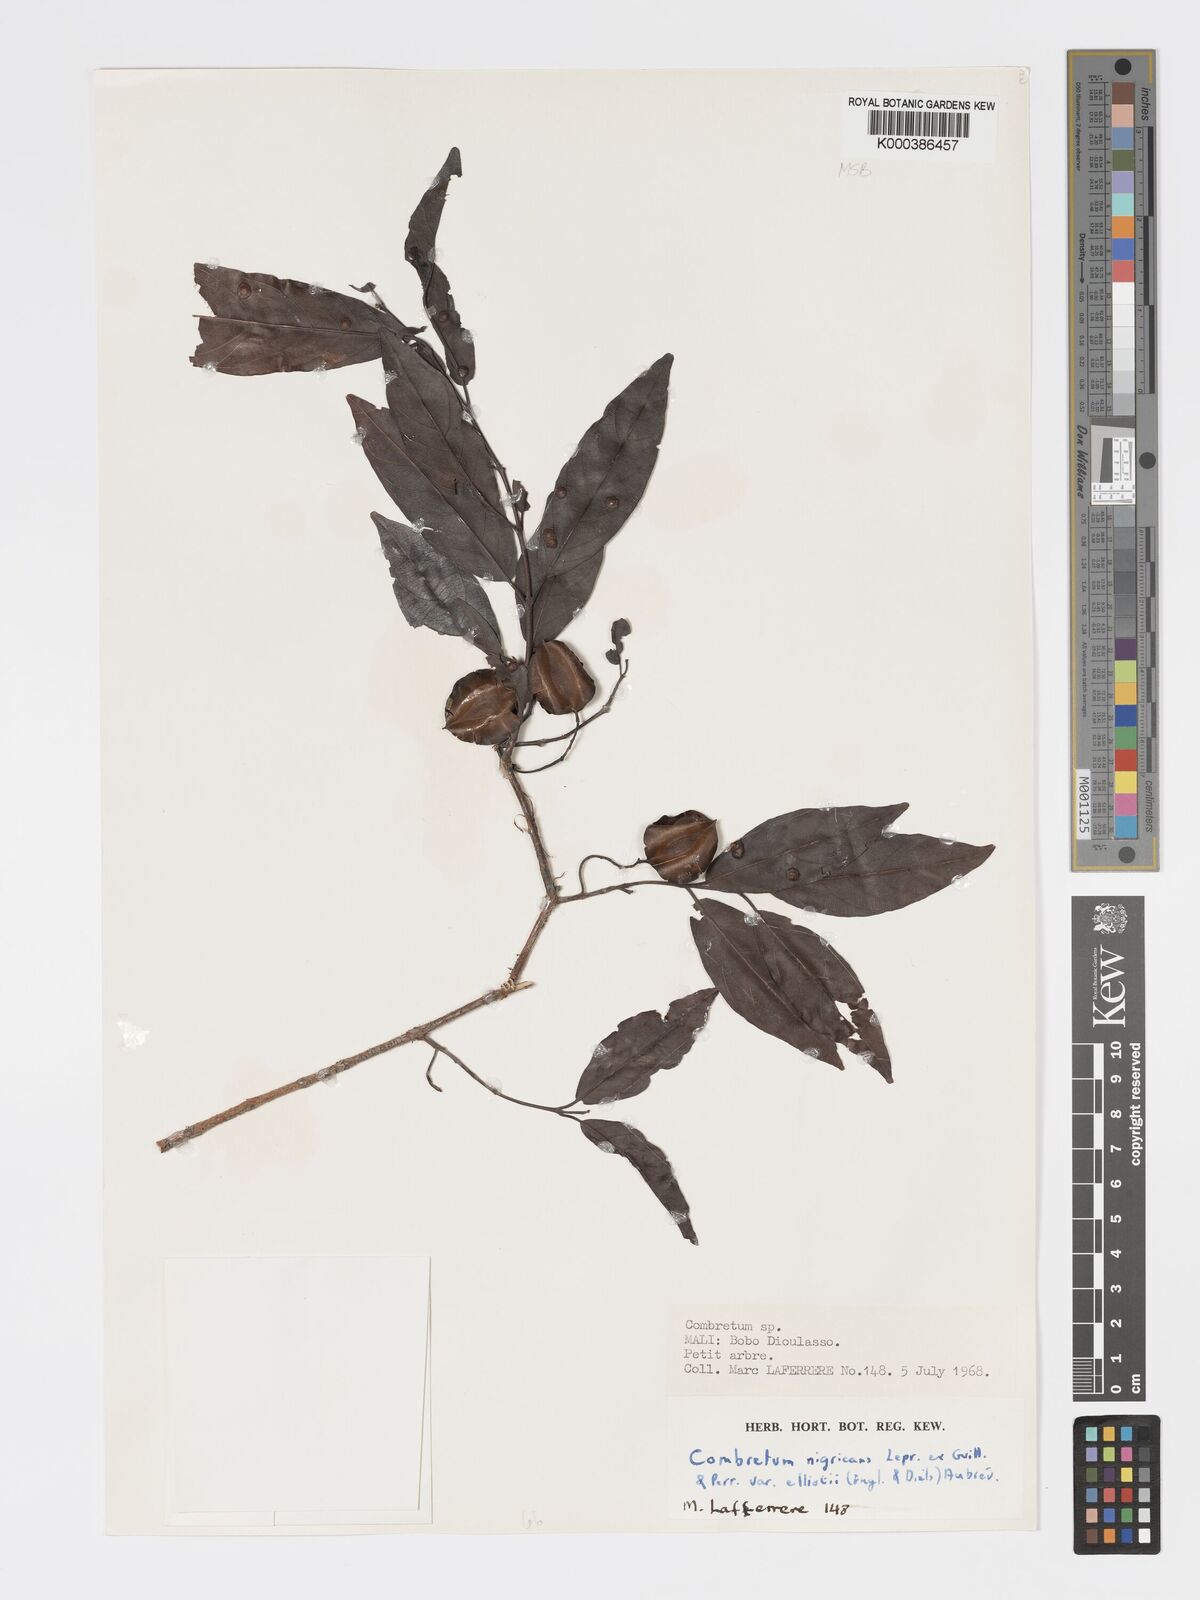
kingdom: Plantae
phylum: Tracheophyta
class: Magnoliopsida
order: Myrtales
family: Combretaceae
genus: Combretum
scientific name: Combretum nigricans
